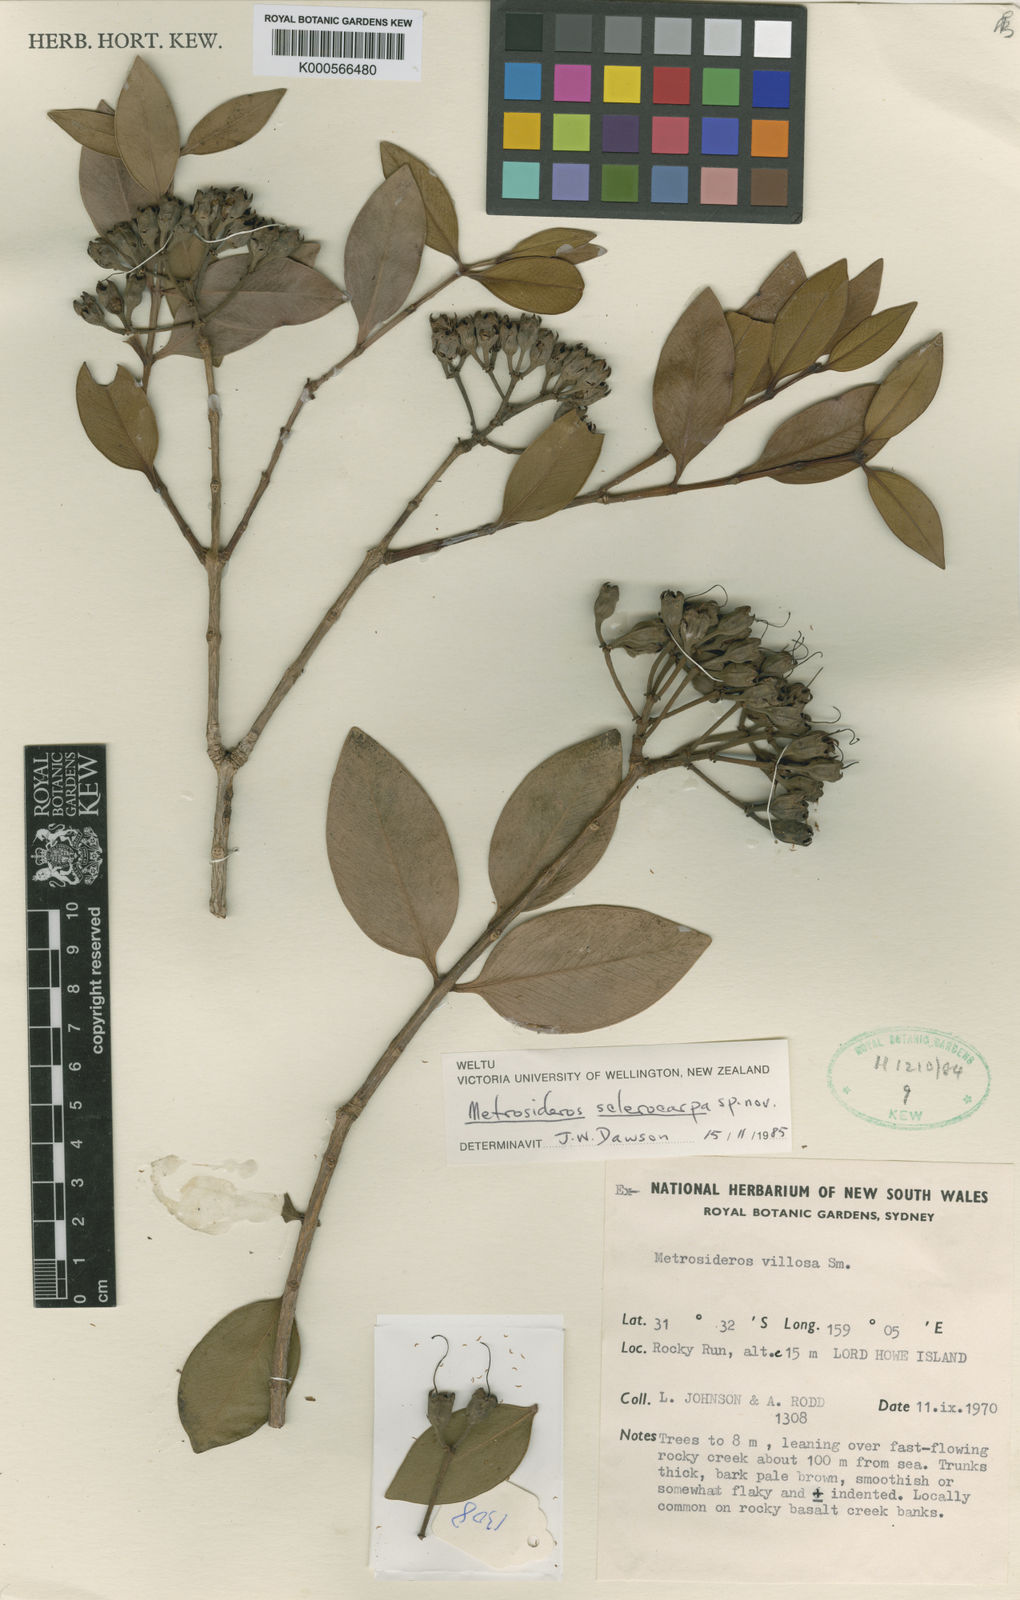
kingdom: Plantae
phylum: Tracheophyta
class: Magnoliopsida
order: Myrtales
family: Myrtaceae
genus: Metrosideros
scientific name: Metrosideros collina
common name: Vunga
